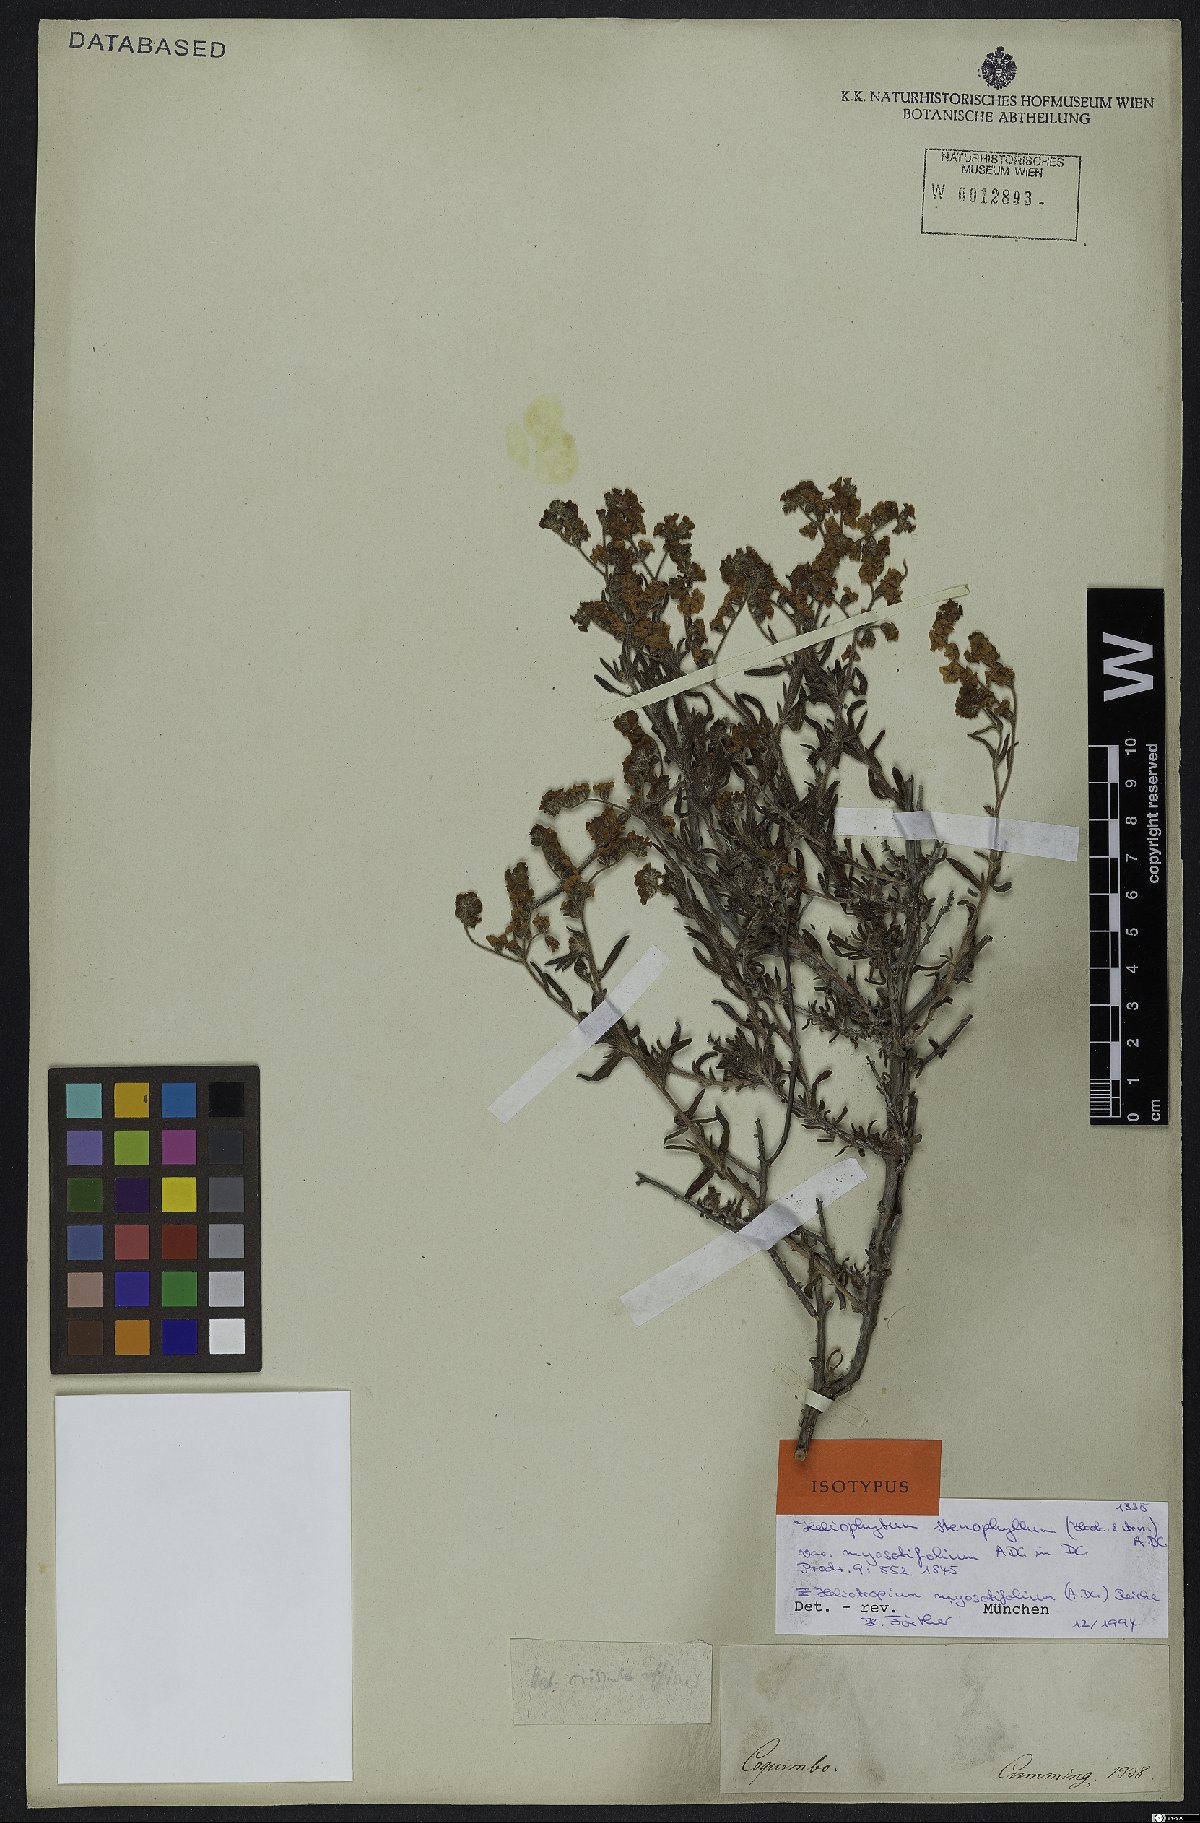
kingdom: Plantae
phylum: Tracheophyta
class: Magnoliopsida
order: Boraginales
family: Heliotropiaceae
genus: Heliotropium
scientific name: Heliotropium myosotifolium
